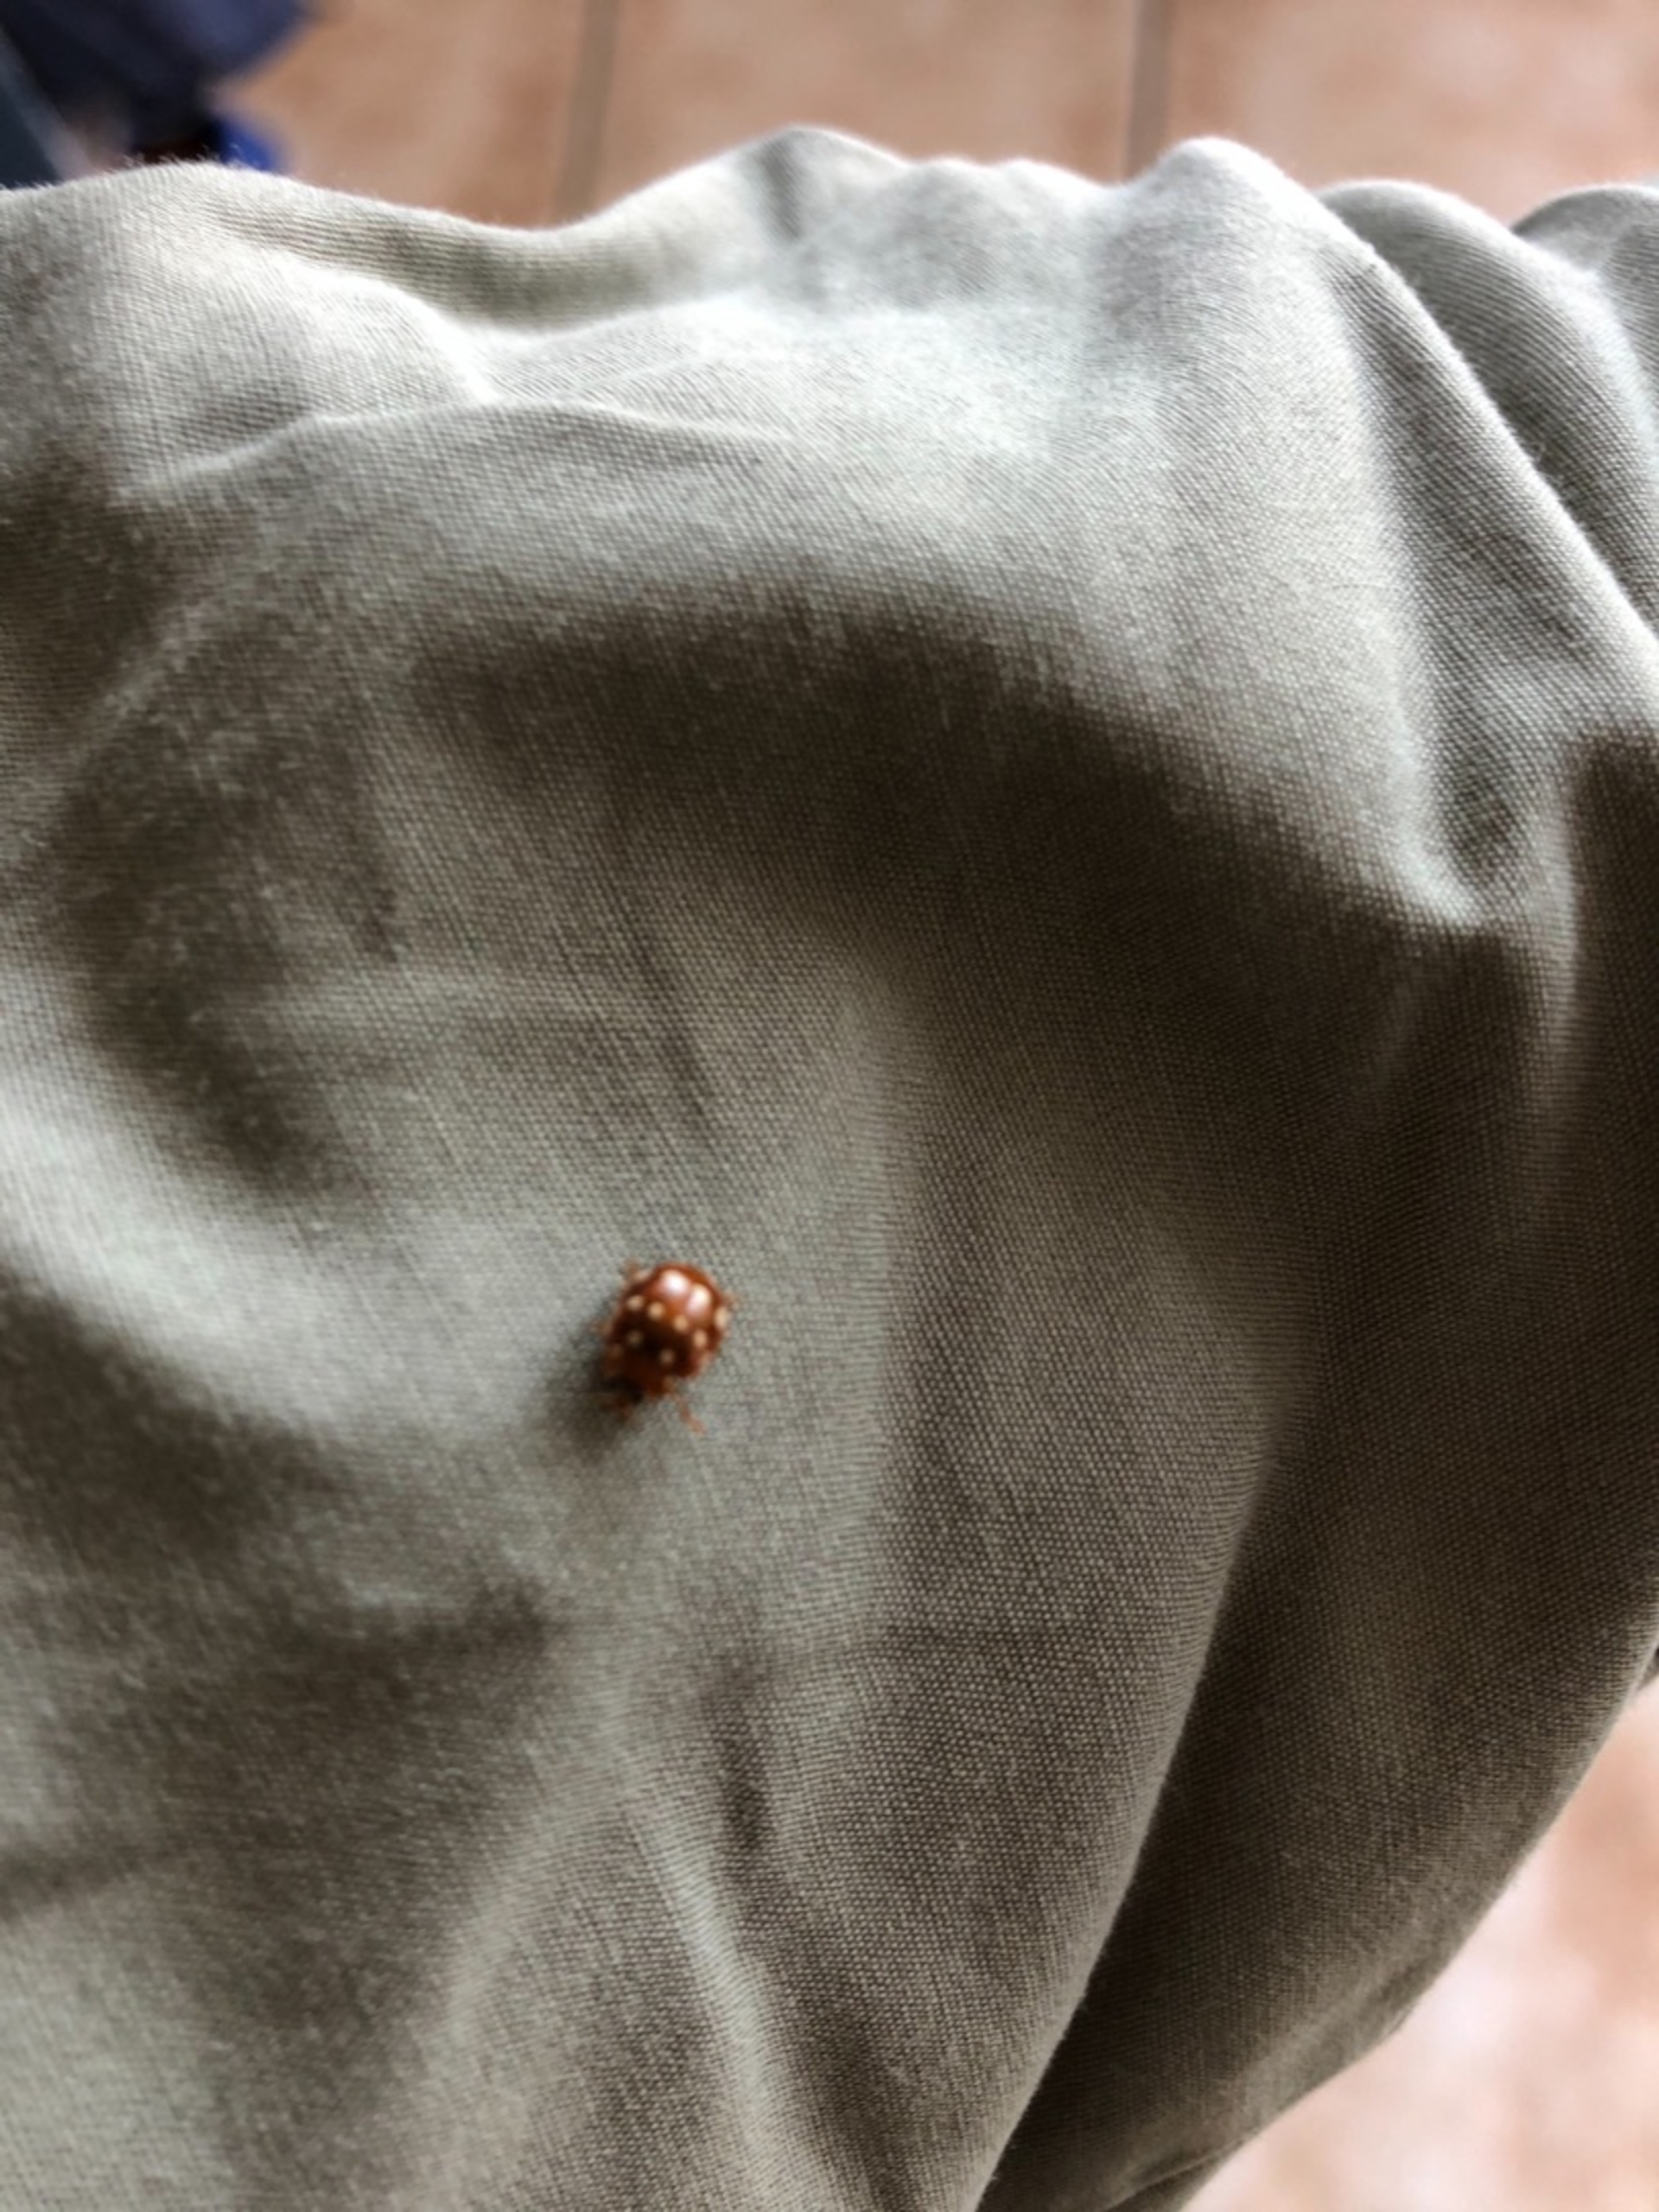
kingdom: Animalia
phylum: Arthropoda
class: Insecta
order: Coleoptera
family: Coccinellidae
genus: Calvia
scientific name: Calvia quatuordecimguttata
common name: Fjortenplettet mariehøne
